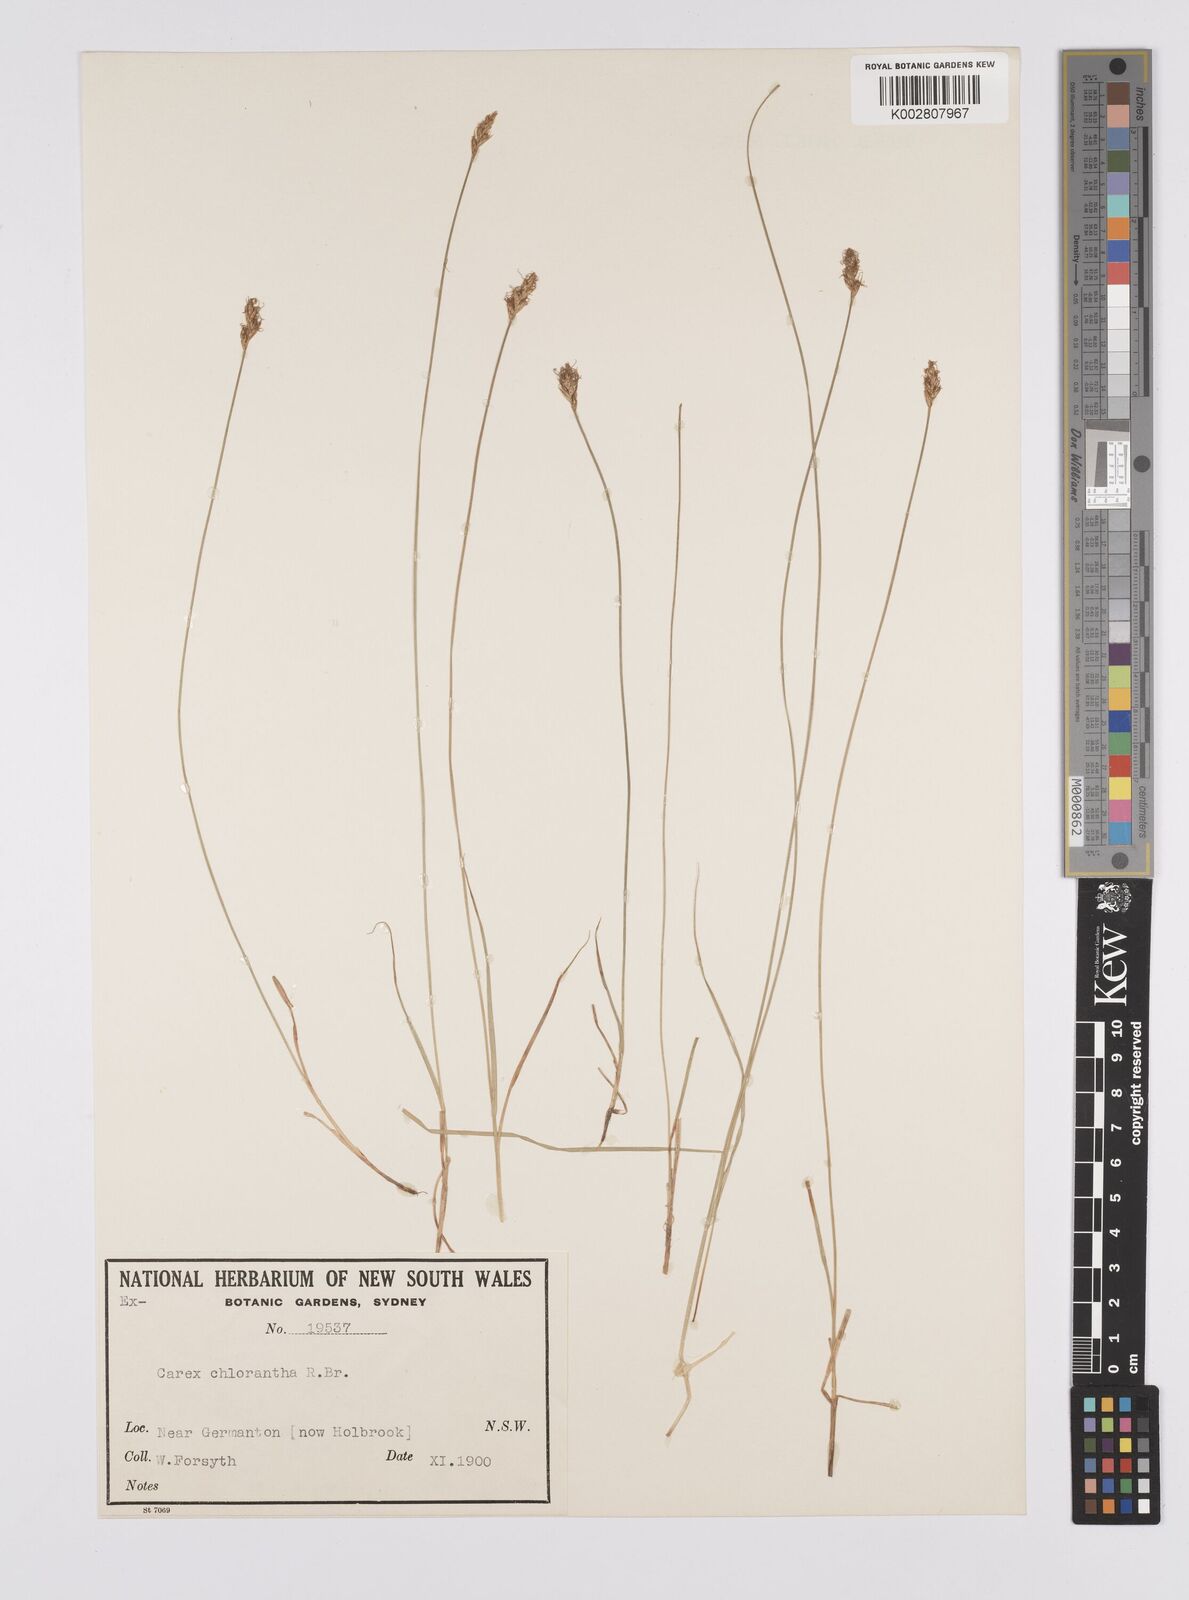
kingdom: Plantae
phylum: Tracheophyta
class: Liliopsida
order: Poales
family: Cyperaceae
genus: Carex
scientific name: Carex chlorantha
